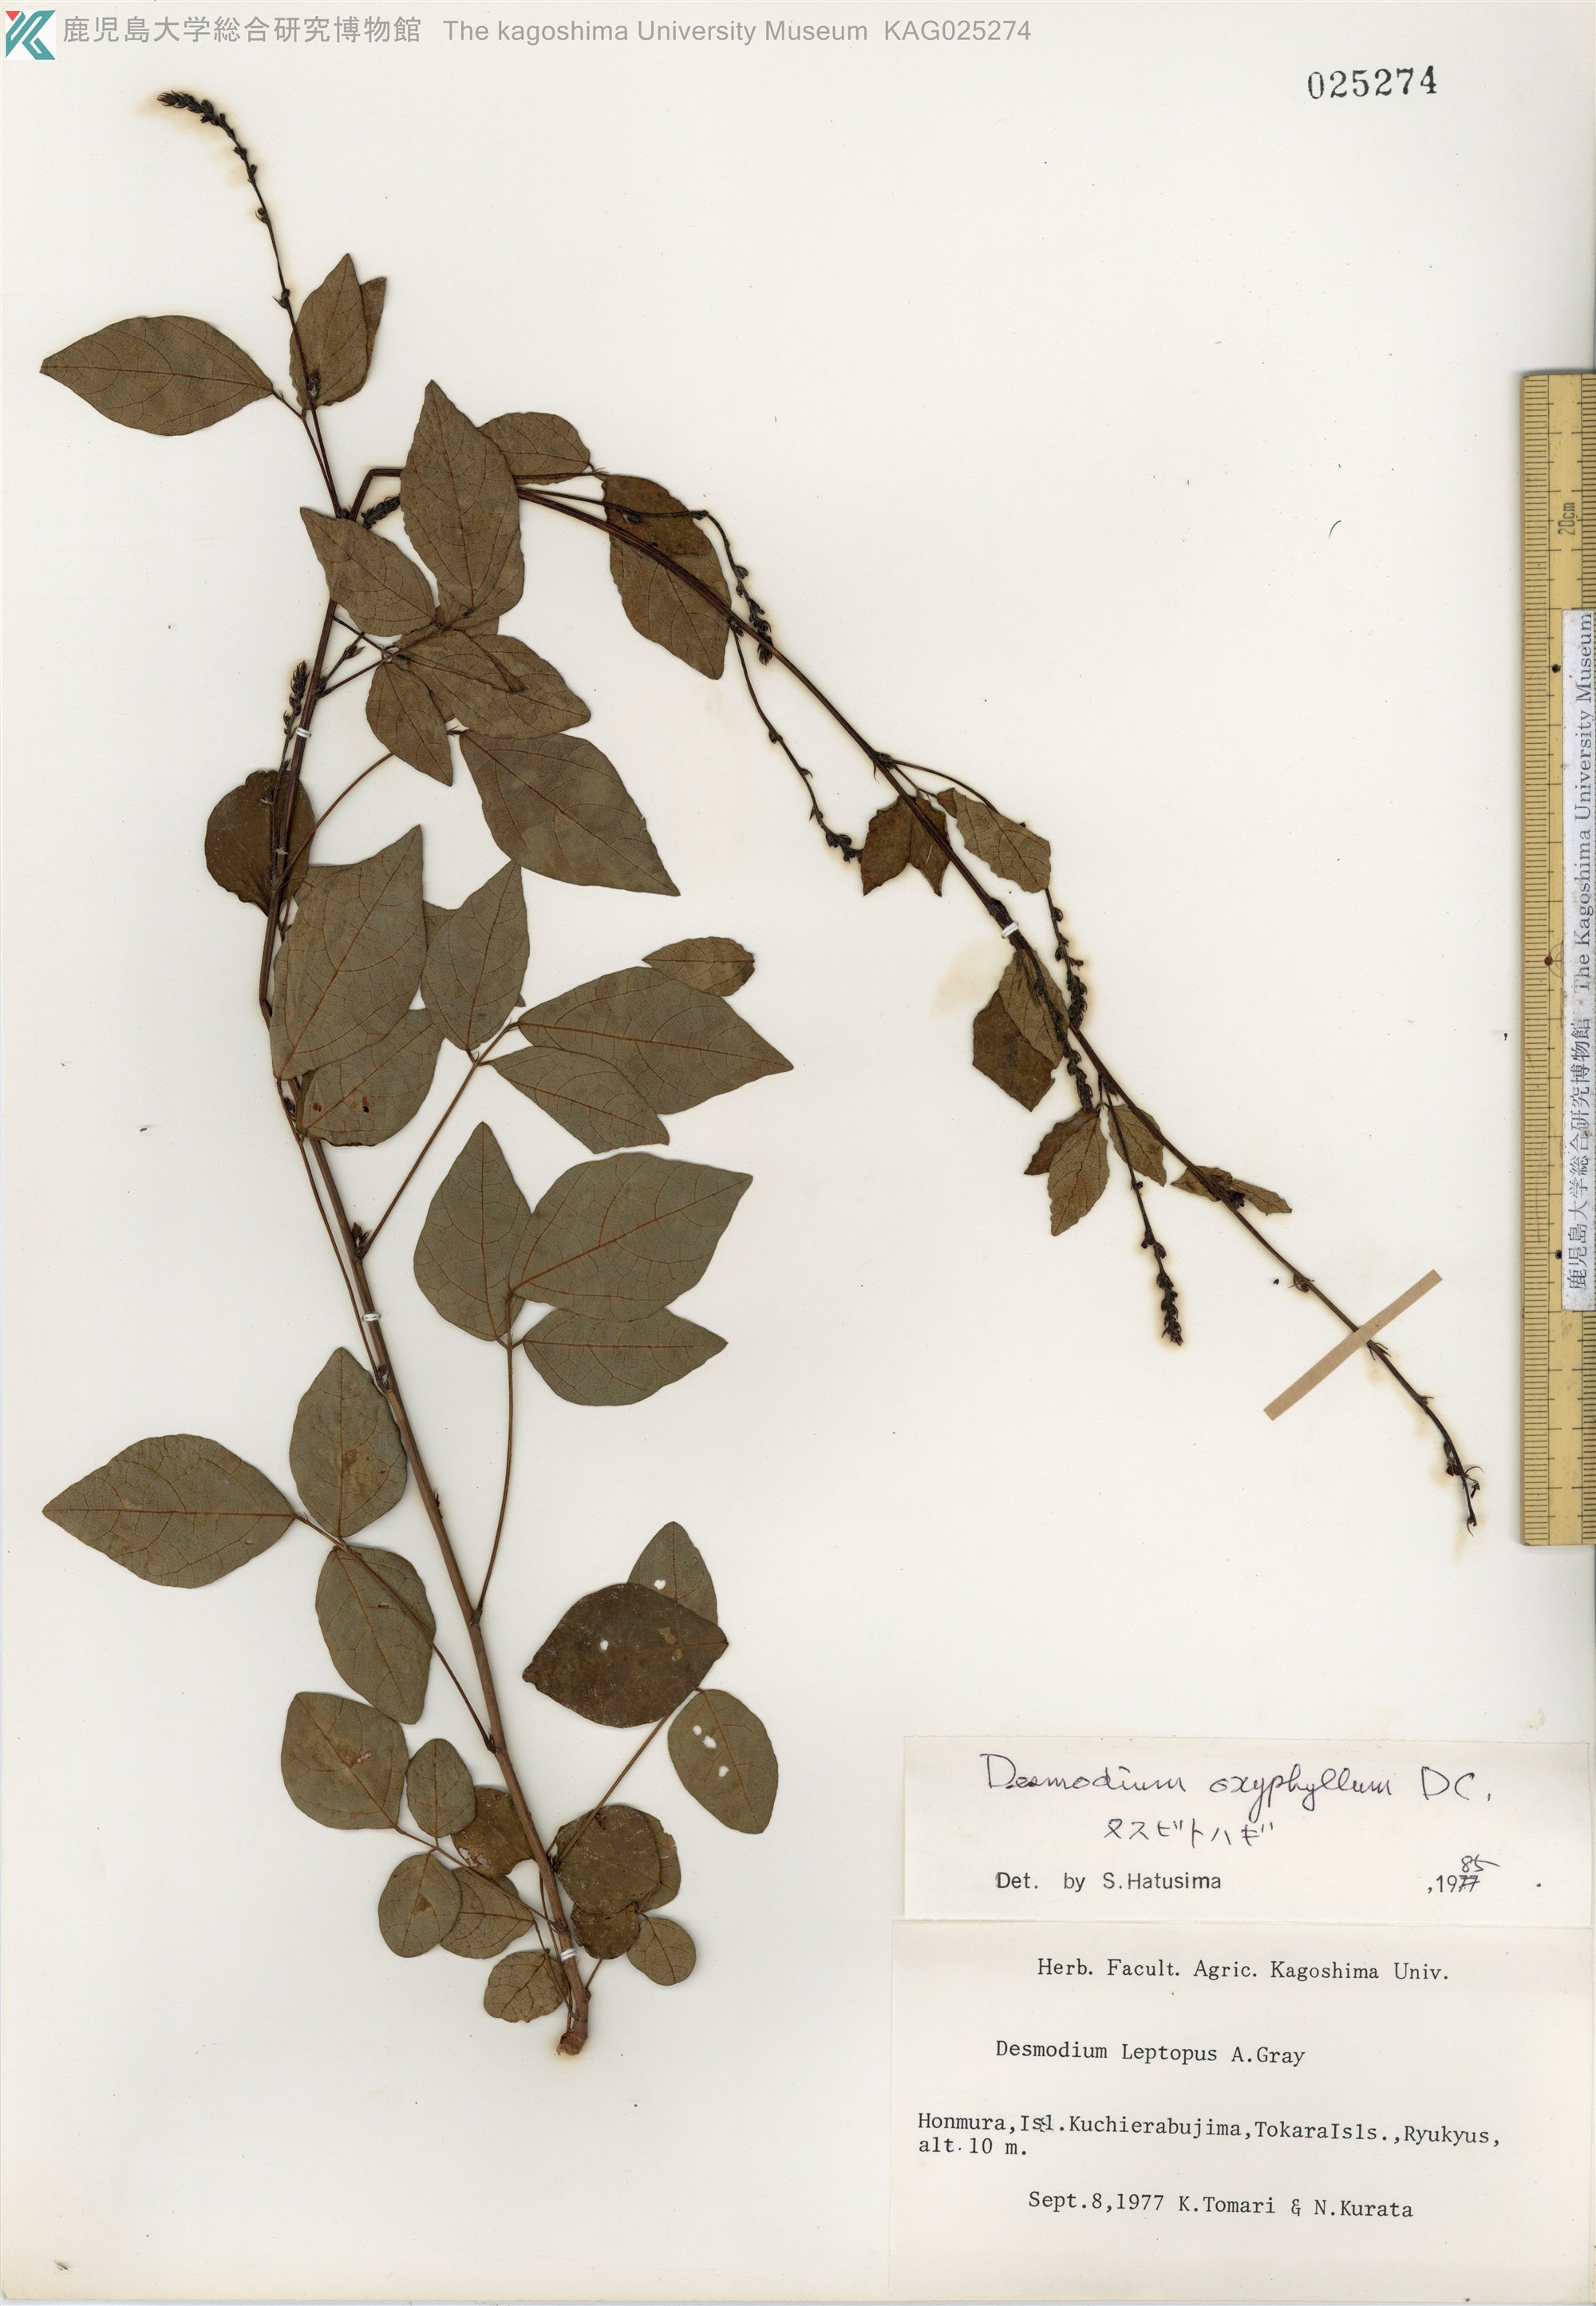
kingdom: Plantae
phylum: Tracheophyta
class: Magnoliopsida
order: Fabales
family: Fabaceae
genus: Hylodesmum
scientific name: Hylodesmum podocarpum
